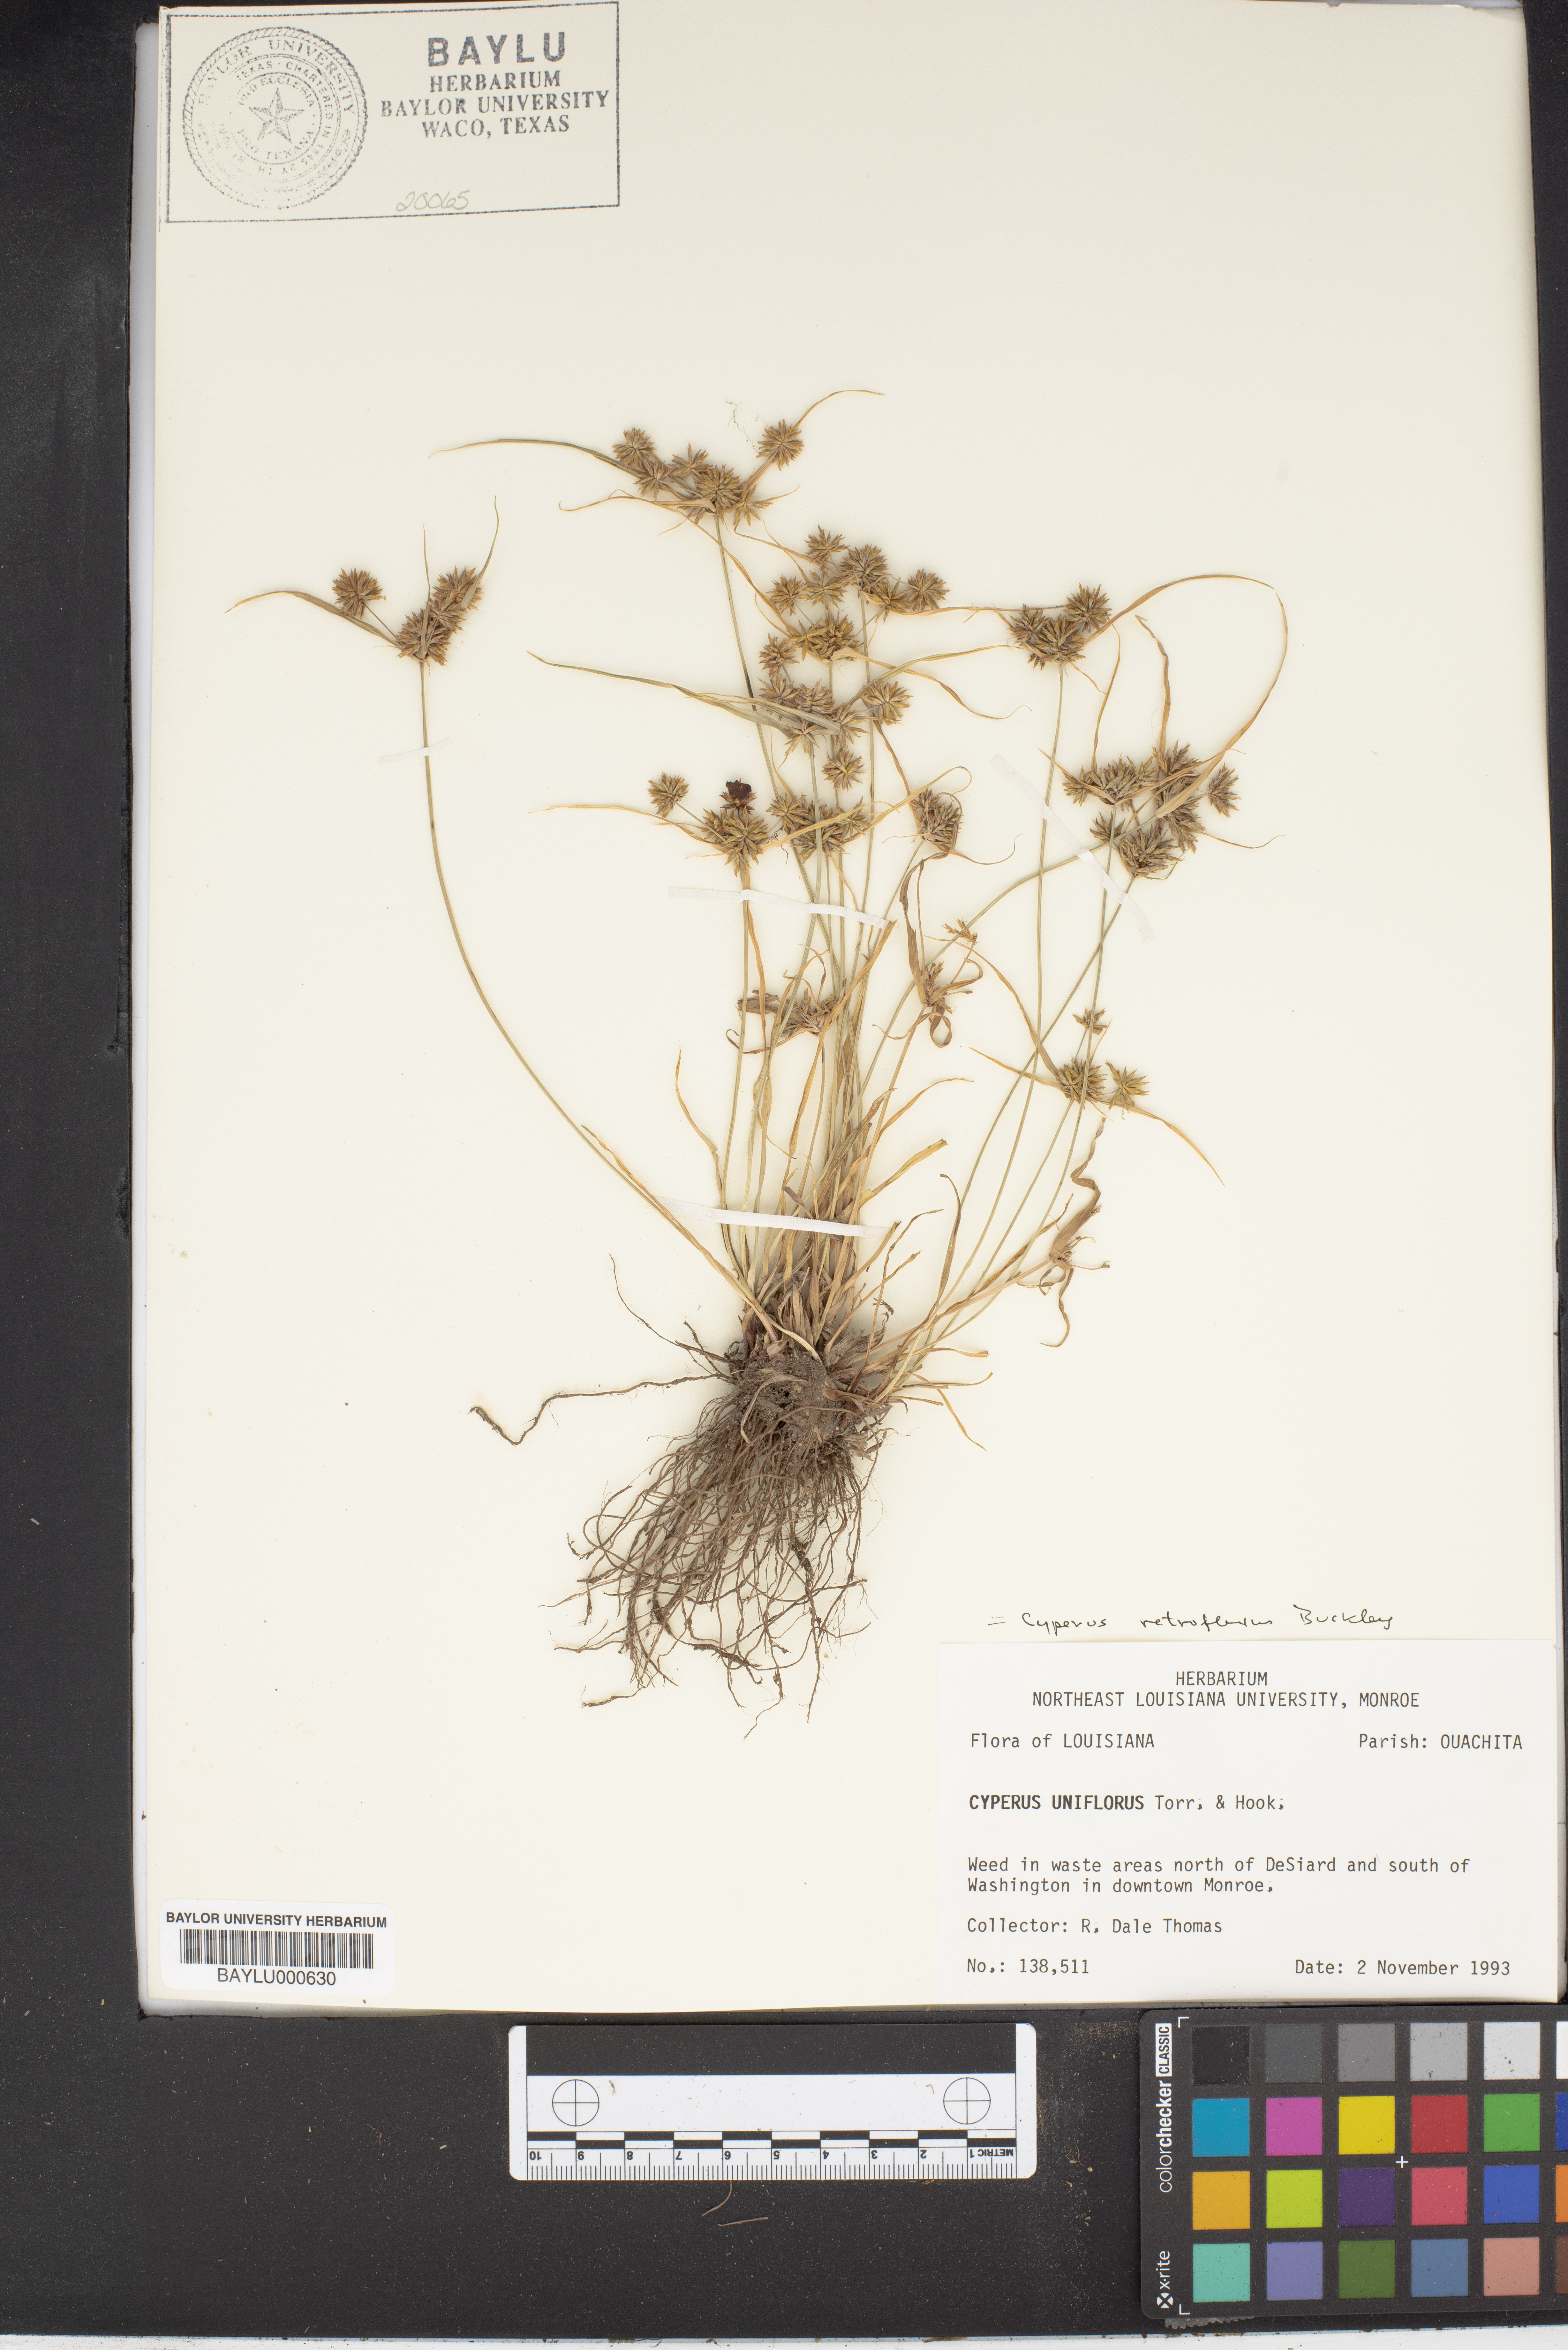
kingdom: Plantae
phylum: Tracheophyta
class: Liliopsida
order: Poales
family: Cyperaceae
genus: Cyperus
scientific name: Cyperus retroflexus
